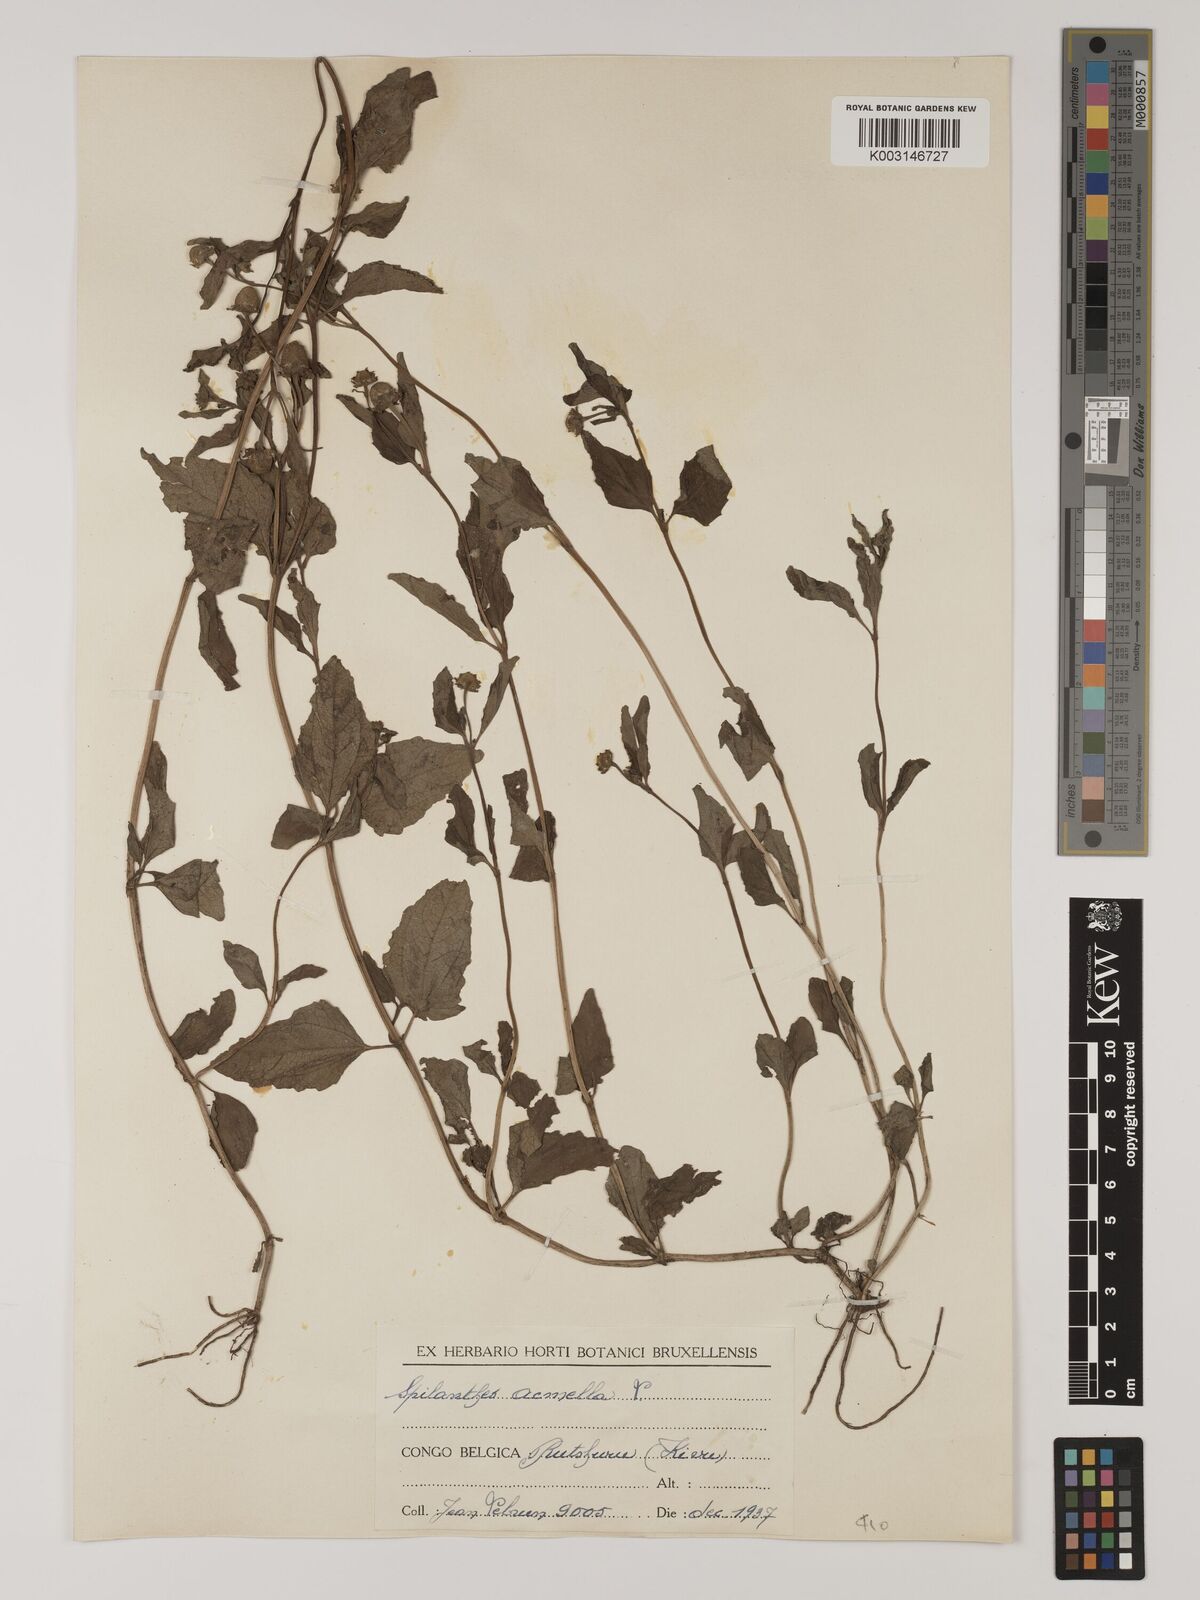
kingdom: Plantae
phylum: Tracheophyta
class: Magnoliopsida
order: Asterales
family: Asteraceae
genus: Blainvillea
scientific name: Blainvillea acmella
